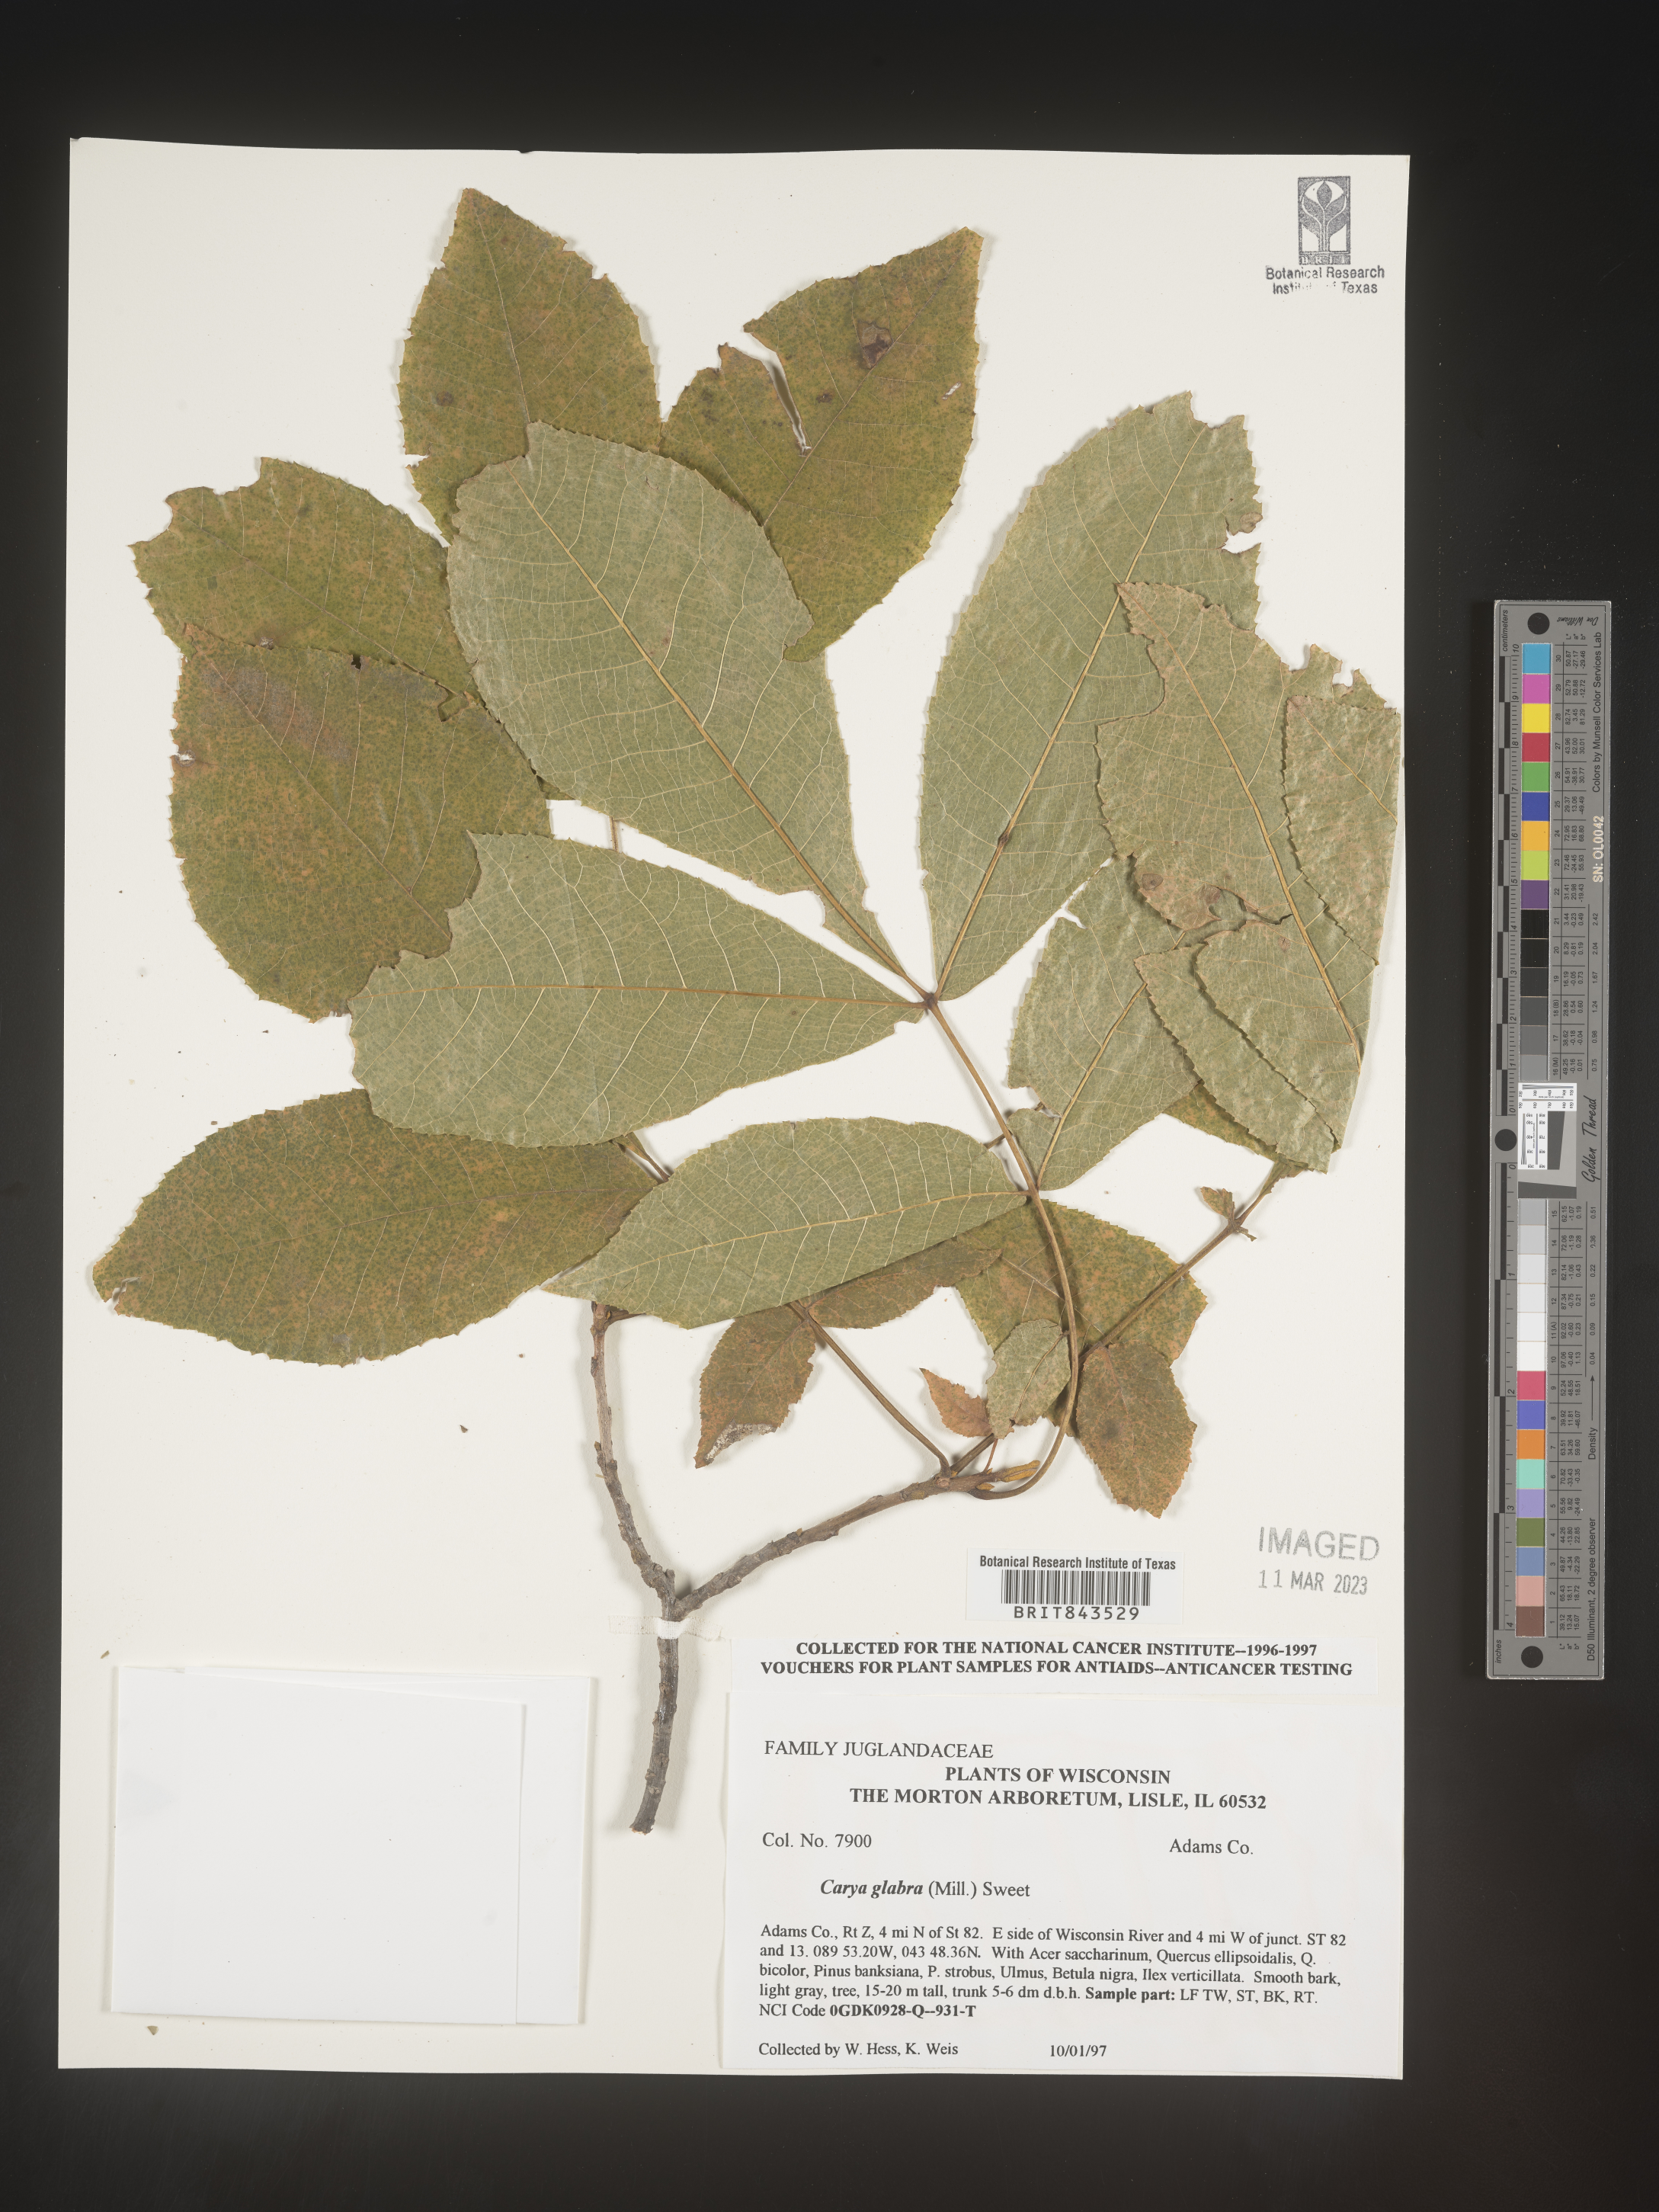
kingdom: Plantae
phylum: Tracheophyta
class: Magnoliopsida
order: Fagales
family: Juglandaceae
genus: Carya
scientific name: Carya glabra
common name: Pignut hickory
